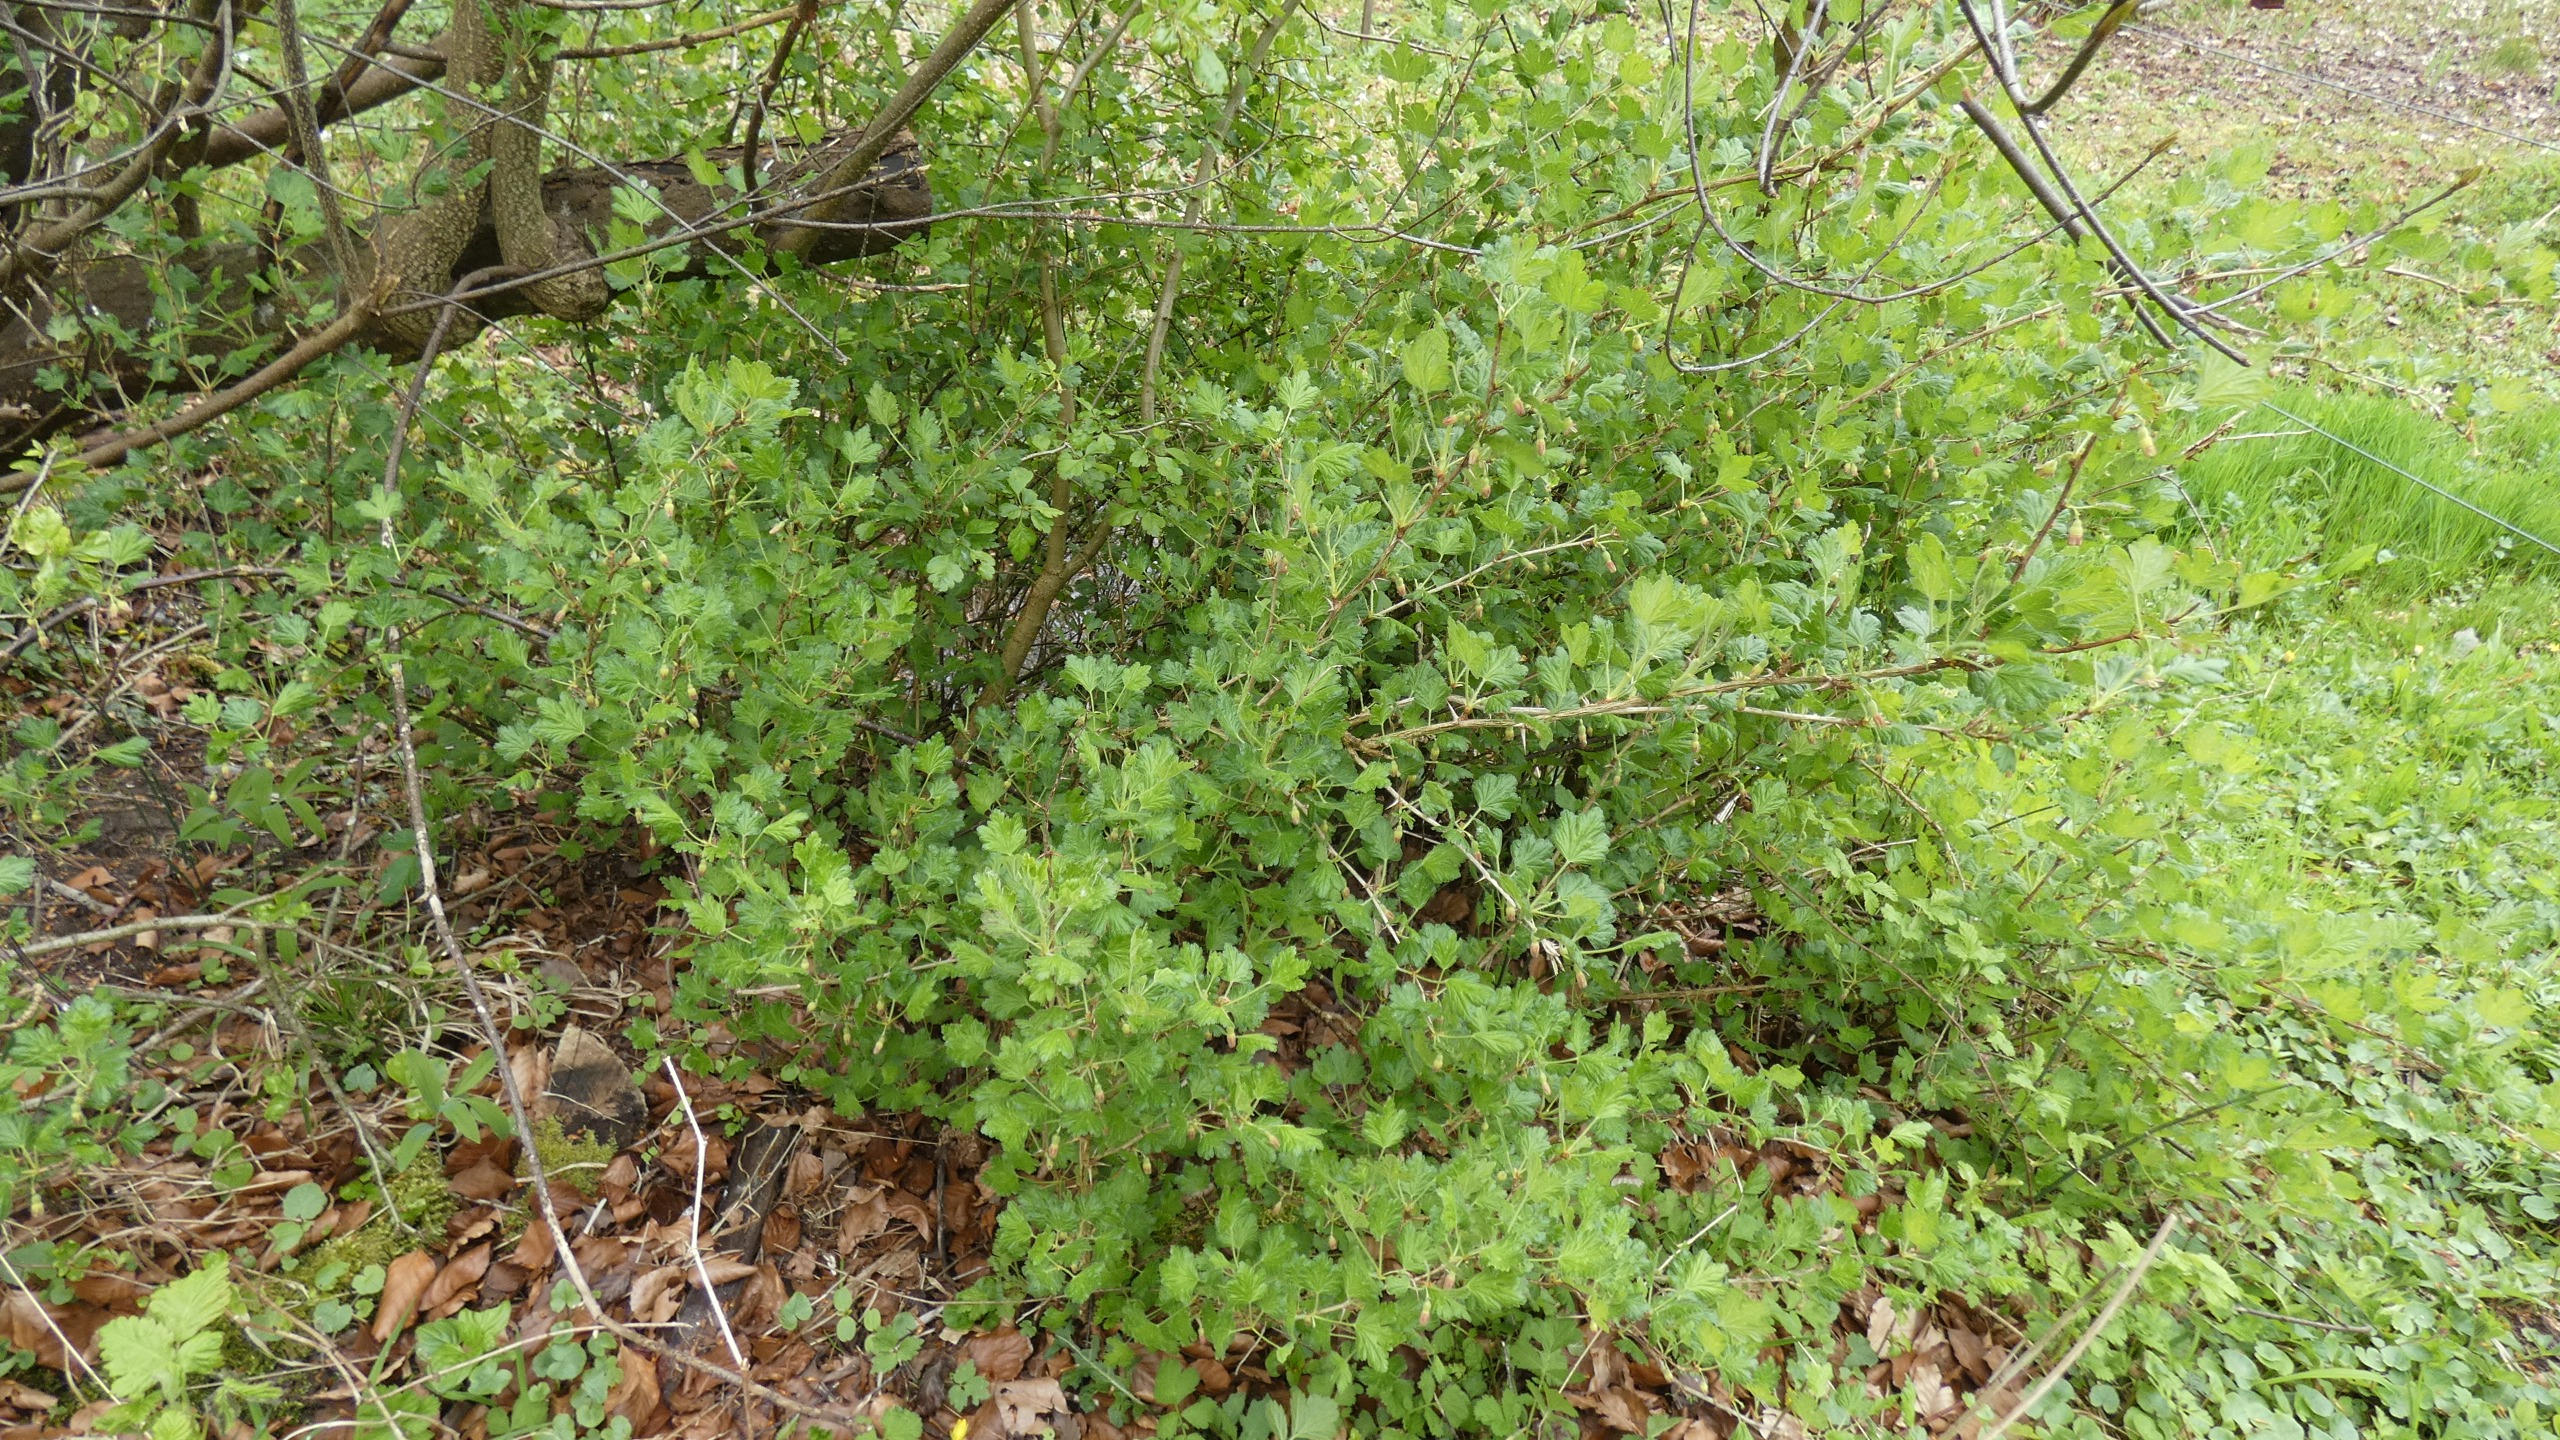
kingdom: Plantae
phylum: Tracheophyta
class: Magnoliopsida
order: Saxifragales
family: Grossulariaceae
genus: Ribes
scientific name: Ribes uva-crispa
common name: Stikkelsbær
